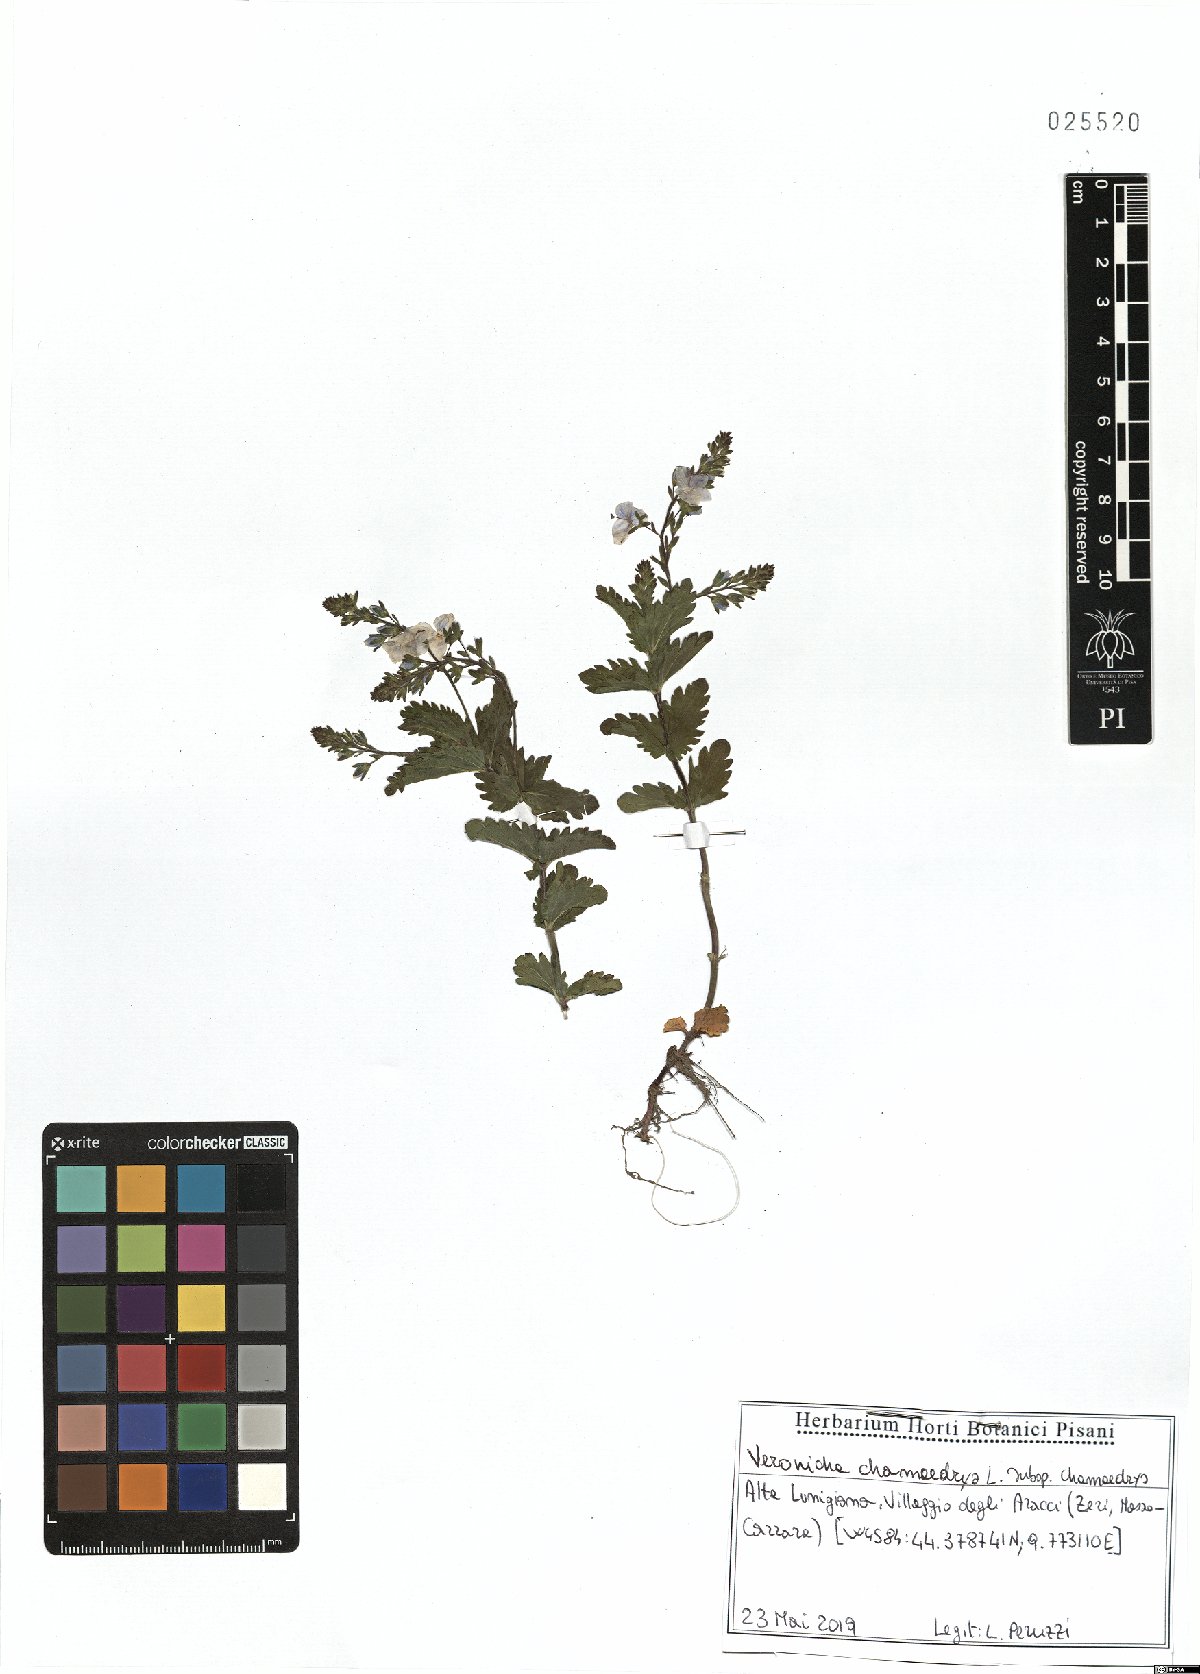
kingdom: Plantae
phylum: Tracheophyta
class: Magnoliopsida
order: Lamiales
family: Plantaginaceae
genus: Veronica
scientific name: Veronica chamaedrys
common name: Germander speedwell
